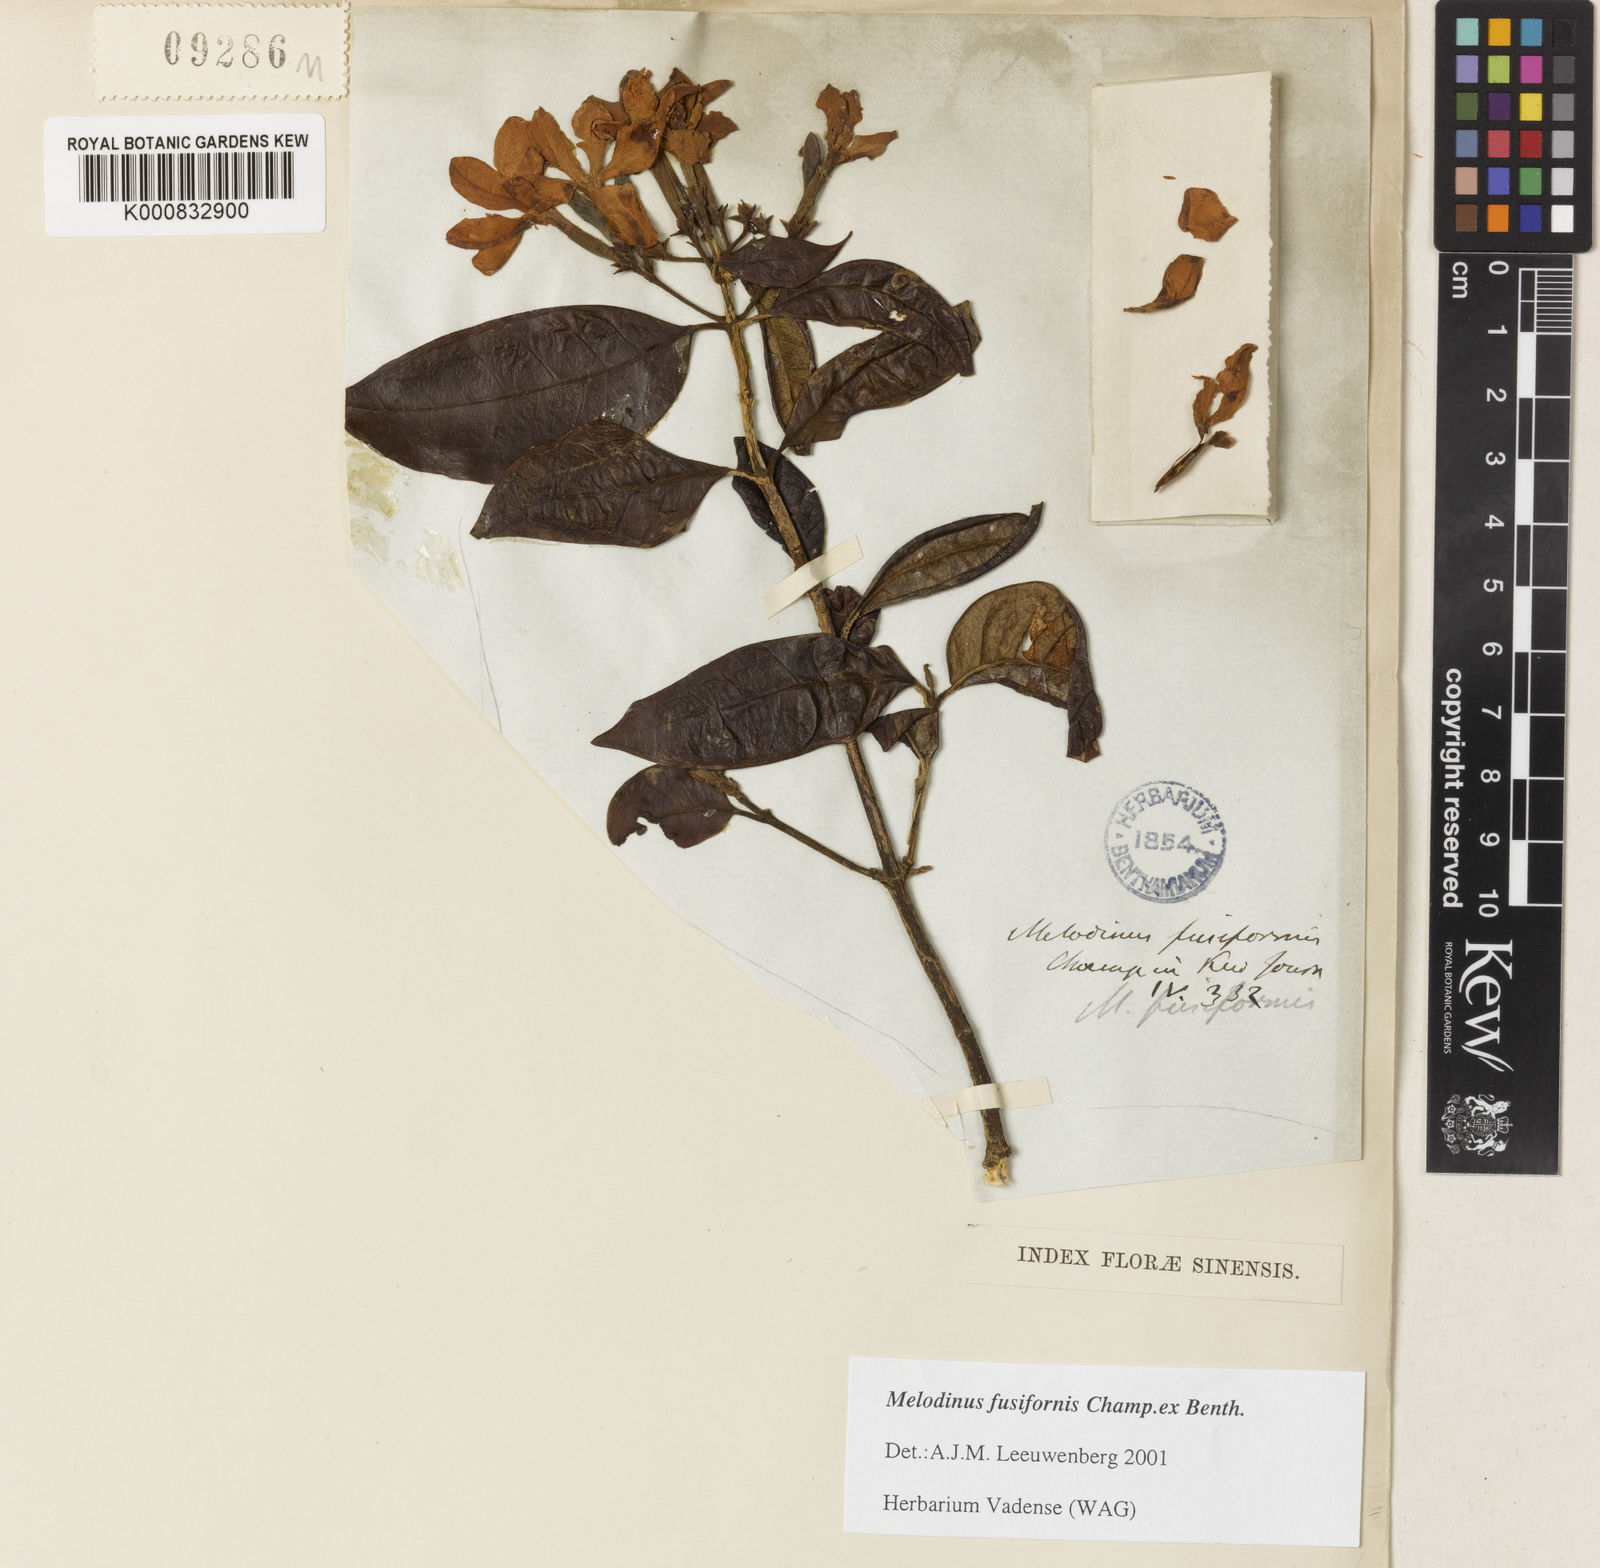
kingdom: Plantae
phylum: Tracheophyta
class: Magnoliopsida
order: Gentianales
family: Apocynaceae
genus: Melodinus
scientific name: Melodinus fusiformis
